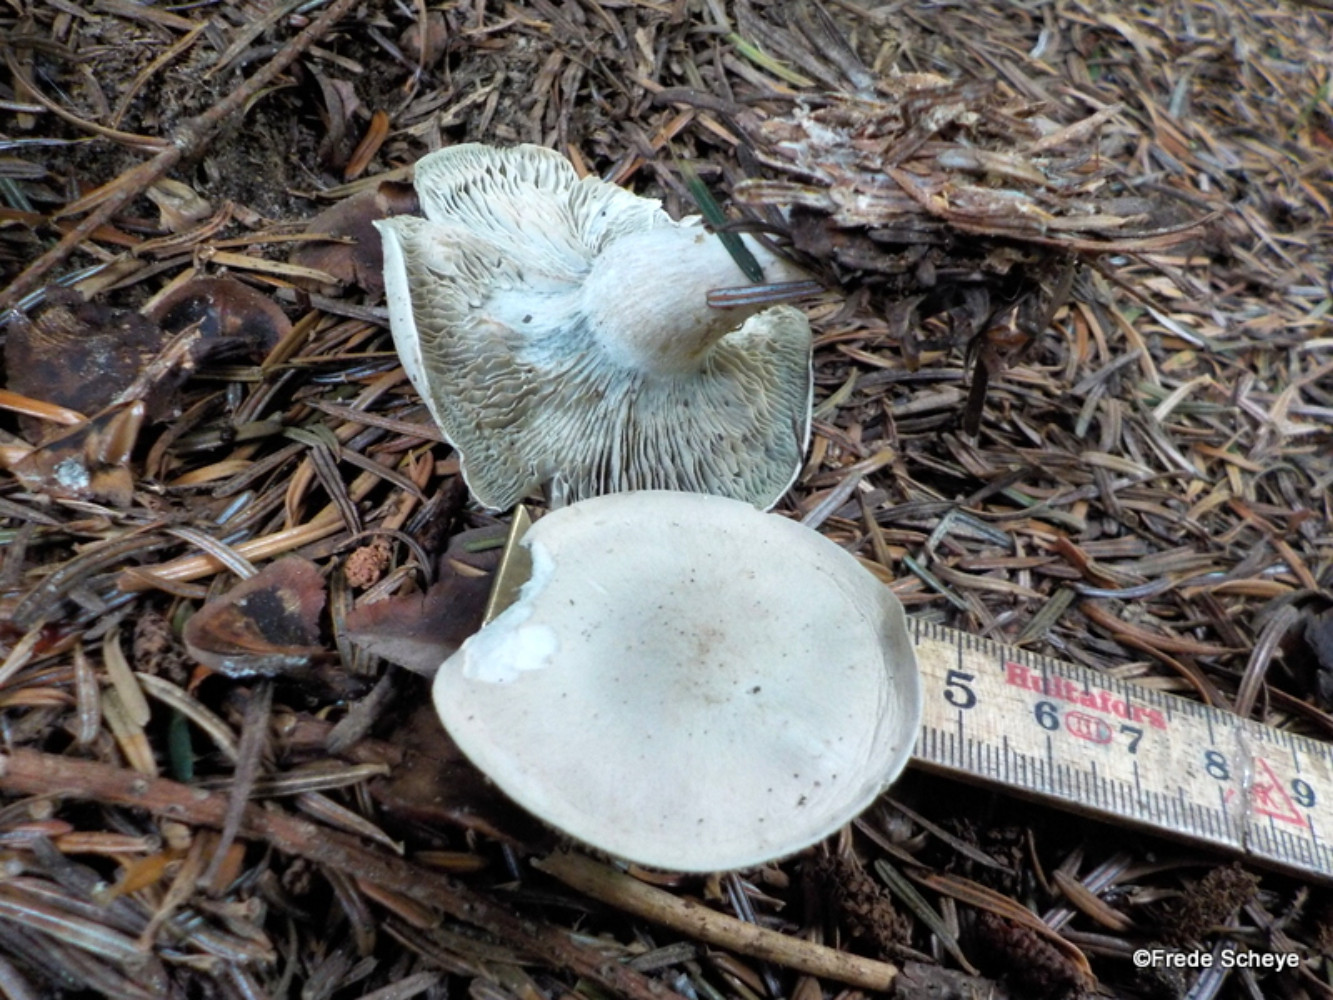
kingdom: Fungi
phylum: Basidiomycota
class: Agaricomycetes
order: Agaricales
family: Tricholomataceae
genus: Clitocybe
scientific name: Clitocybe odora
